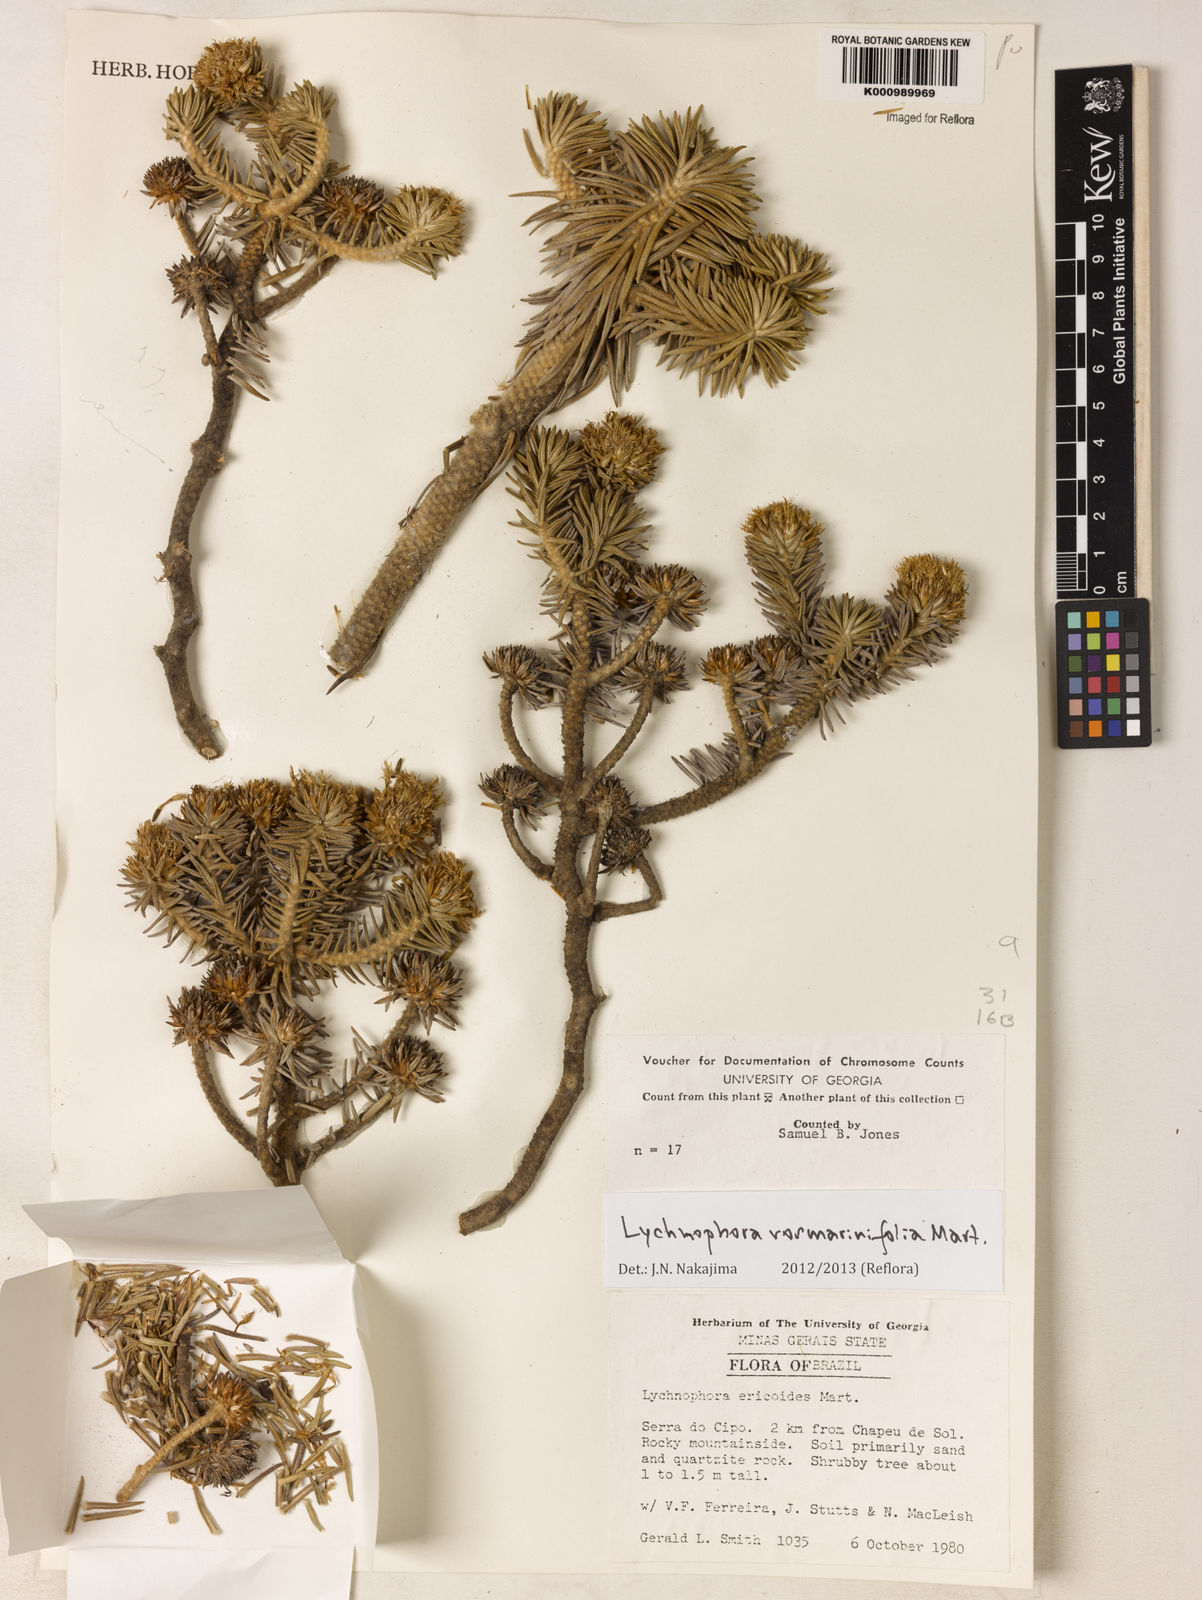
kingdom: Plantae
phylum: Tracheophyta
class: Magnoliopsida
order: Asterales
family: Asteraceae
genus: Lychnophora
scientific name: Lychnophora rosmarinifolia
